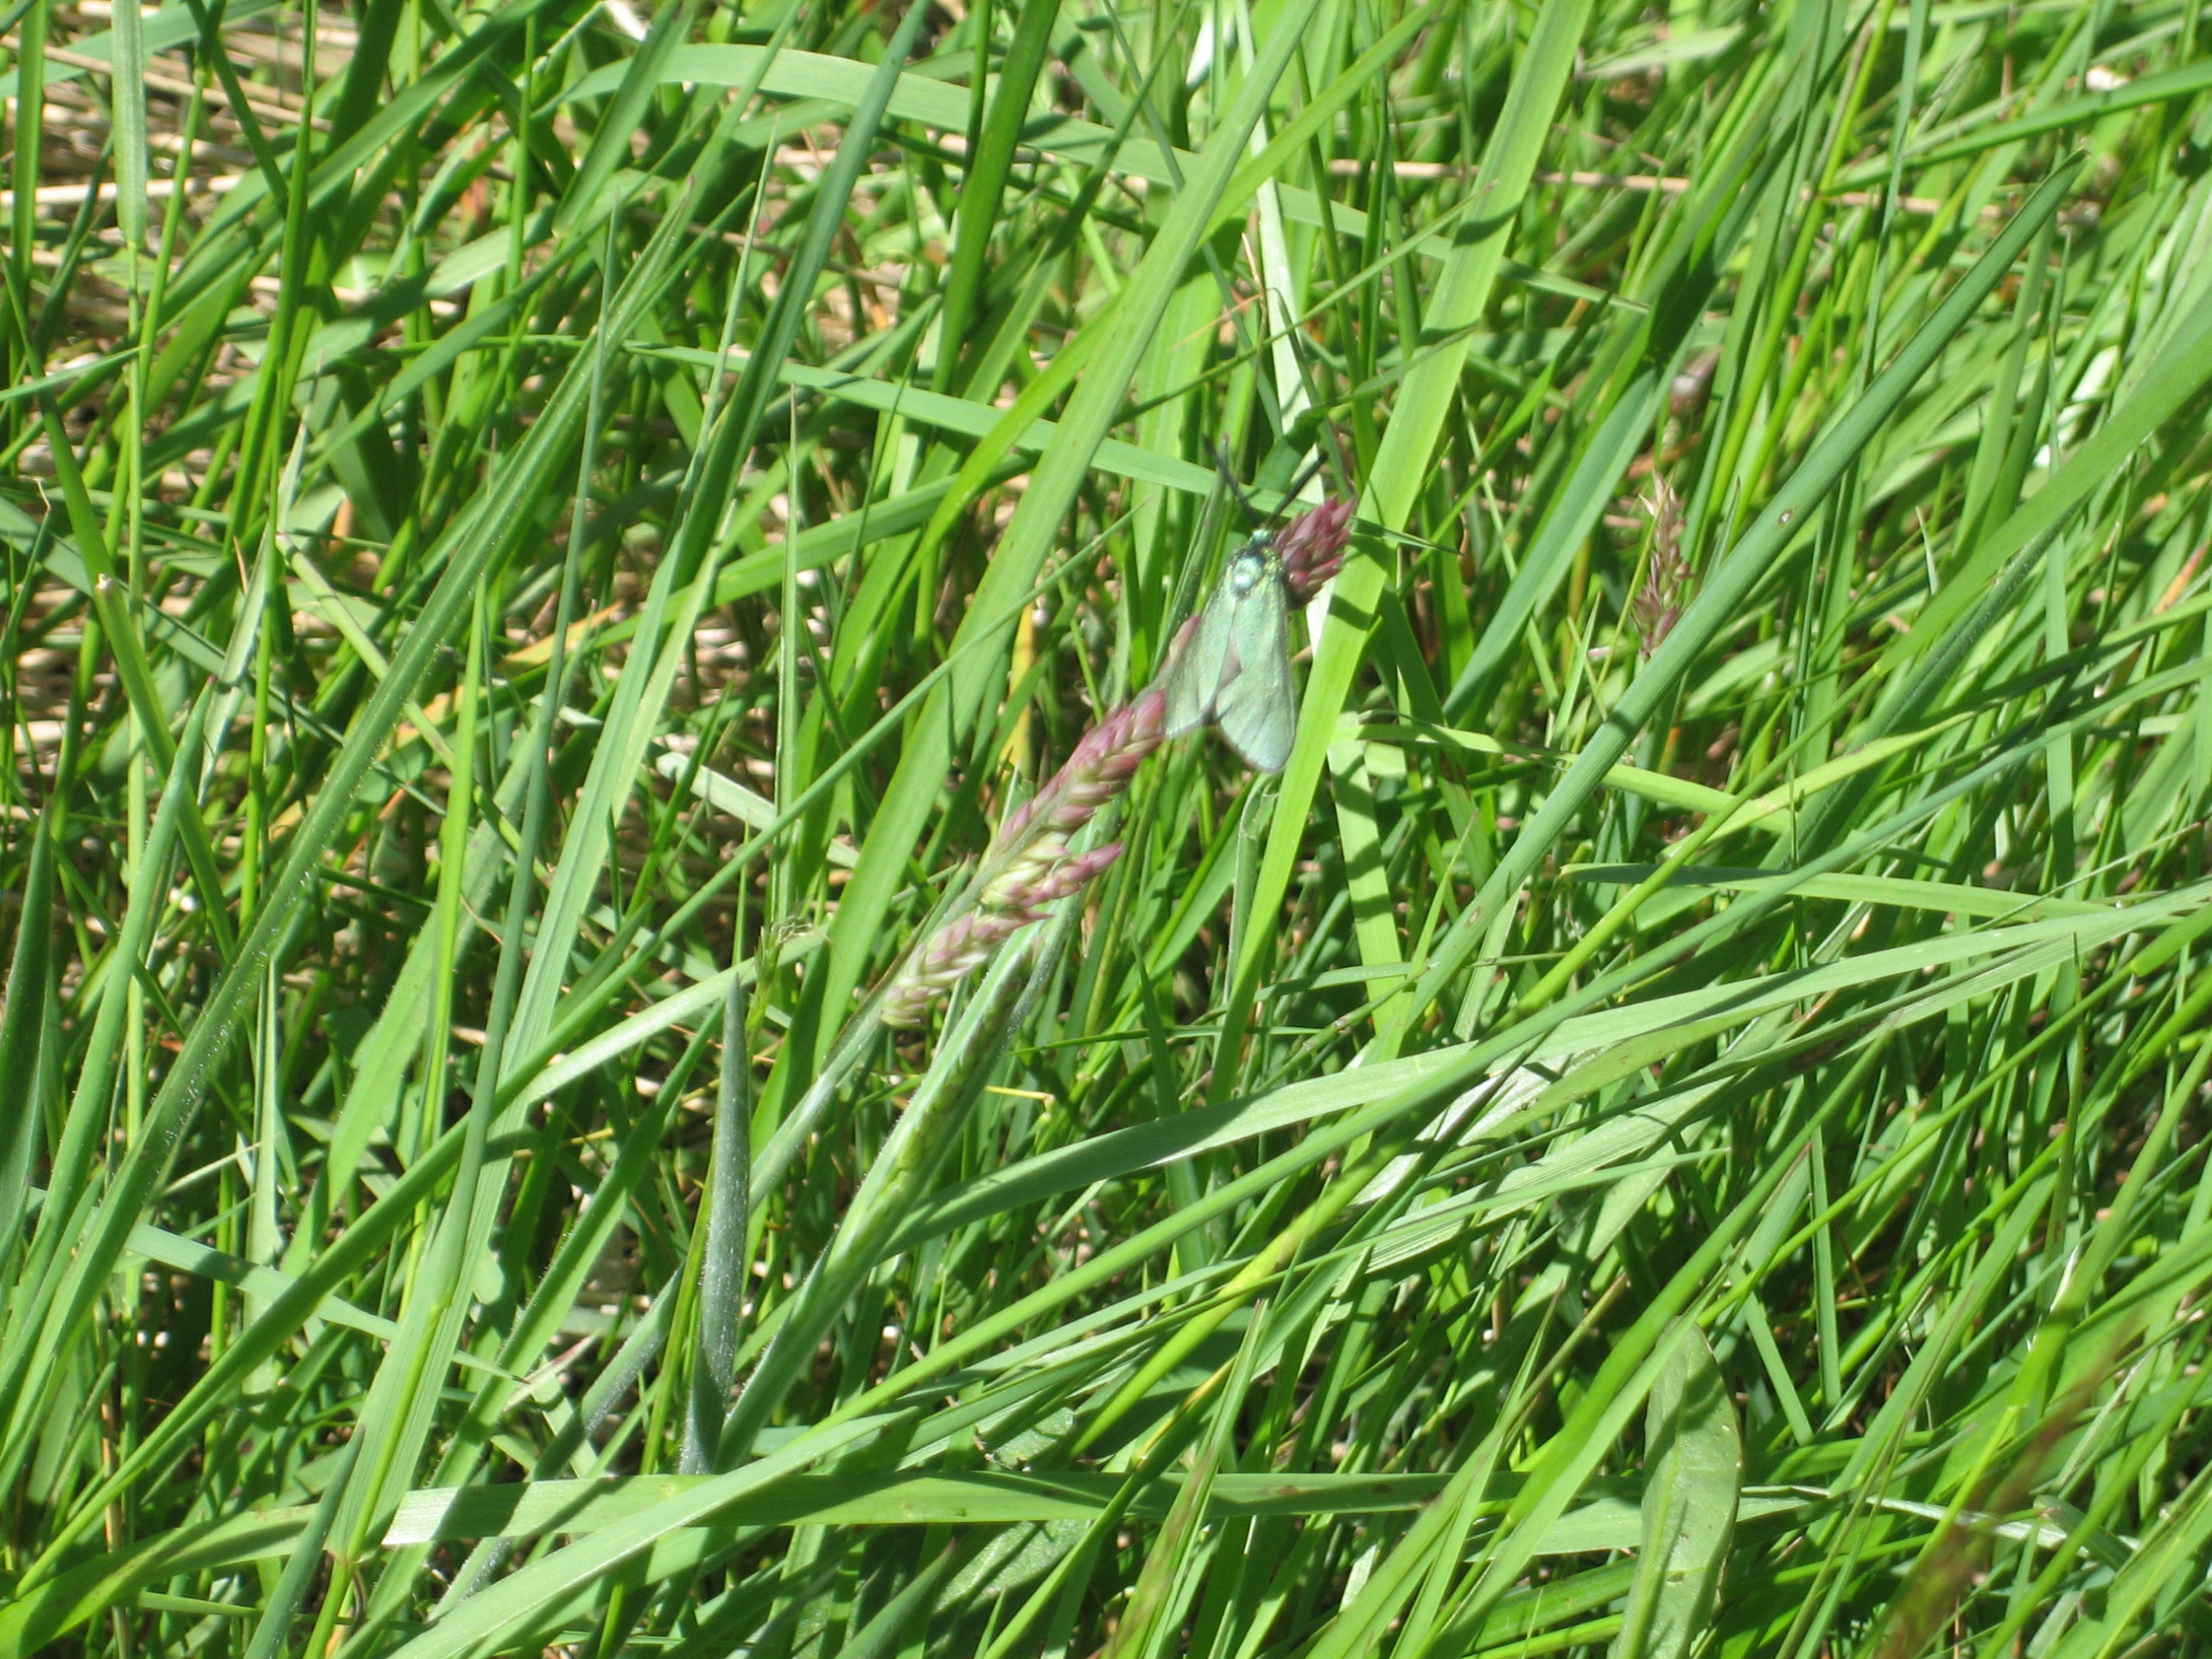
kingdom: Animalia
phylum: Arthropoda
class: Insecta
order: Lepidoptera
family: Zygaenidae
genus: Adscita
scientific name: Adscita statices
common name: Metalvinge
